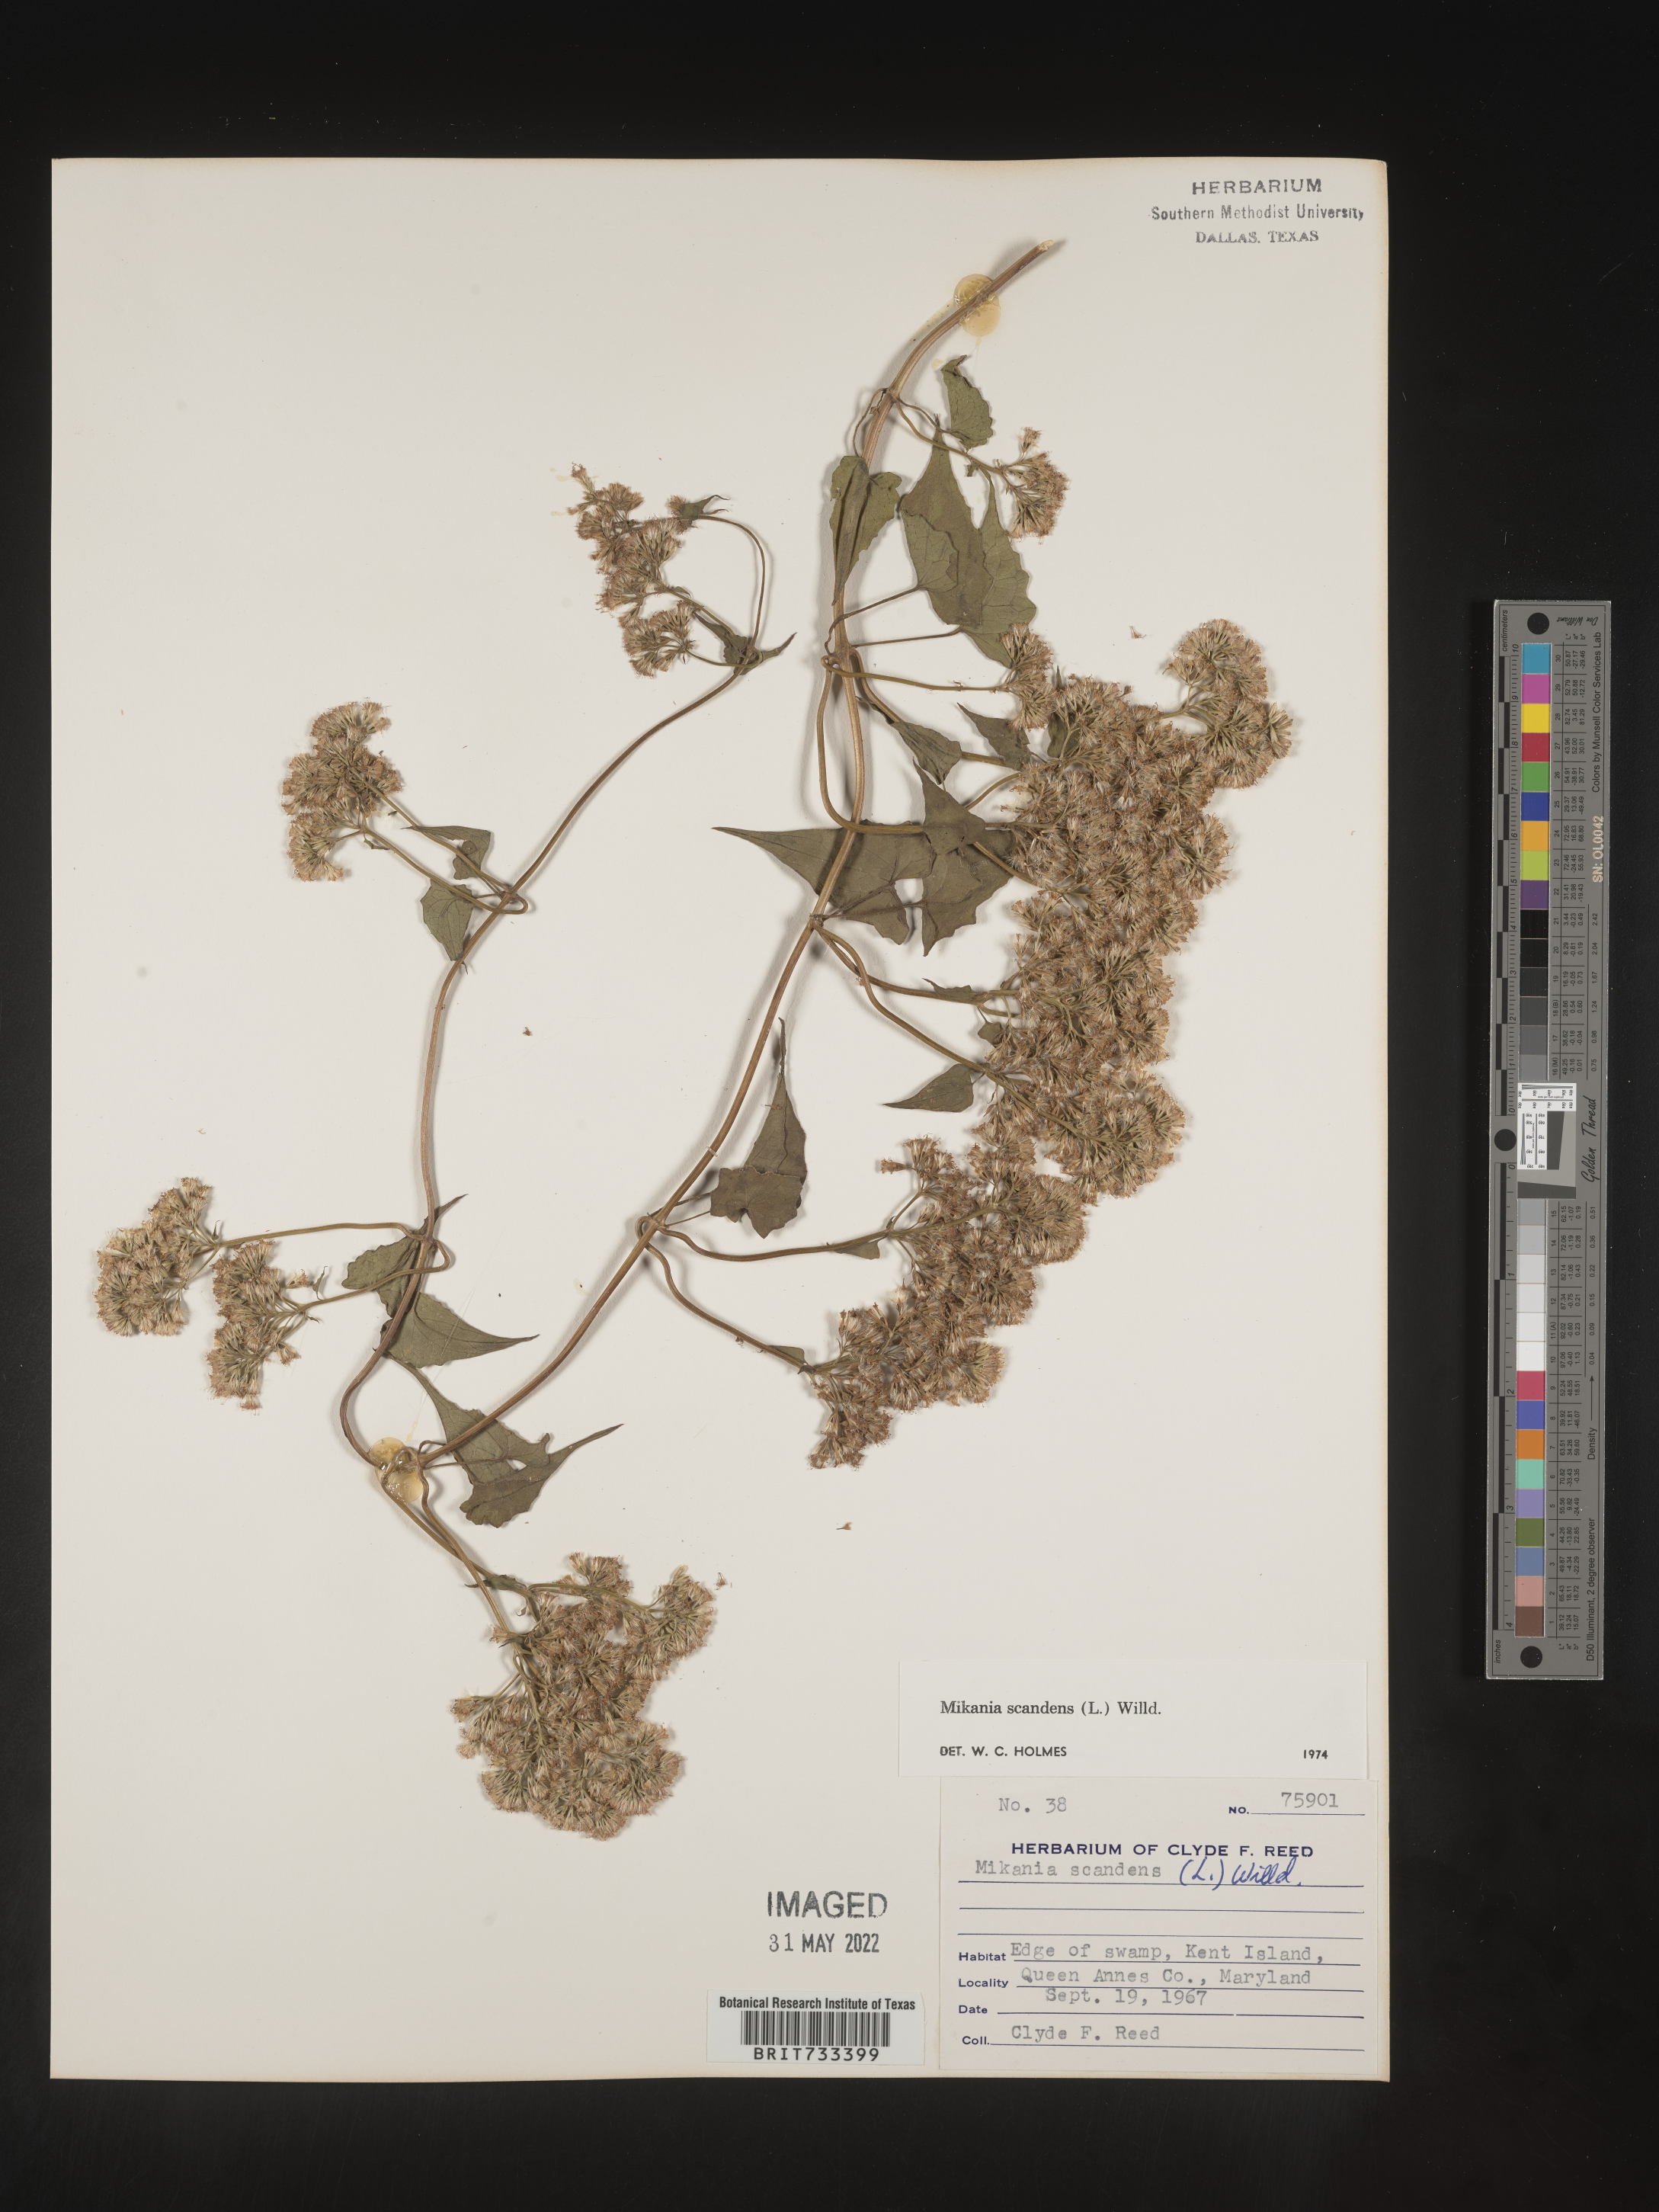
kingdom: Plantae
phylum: Tracheophyta
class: Magnoliopsida
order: Asterales
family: Asteraceae
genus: Mikania
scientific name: Mikania scandens
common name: Climbing hempvine
